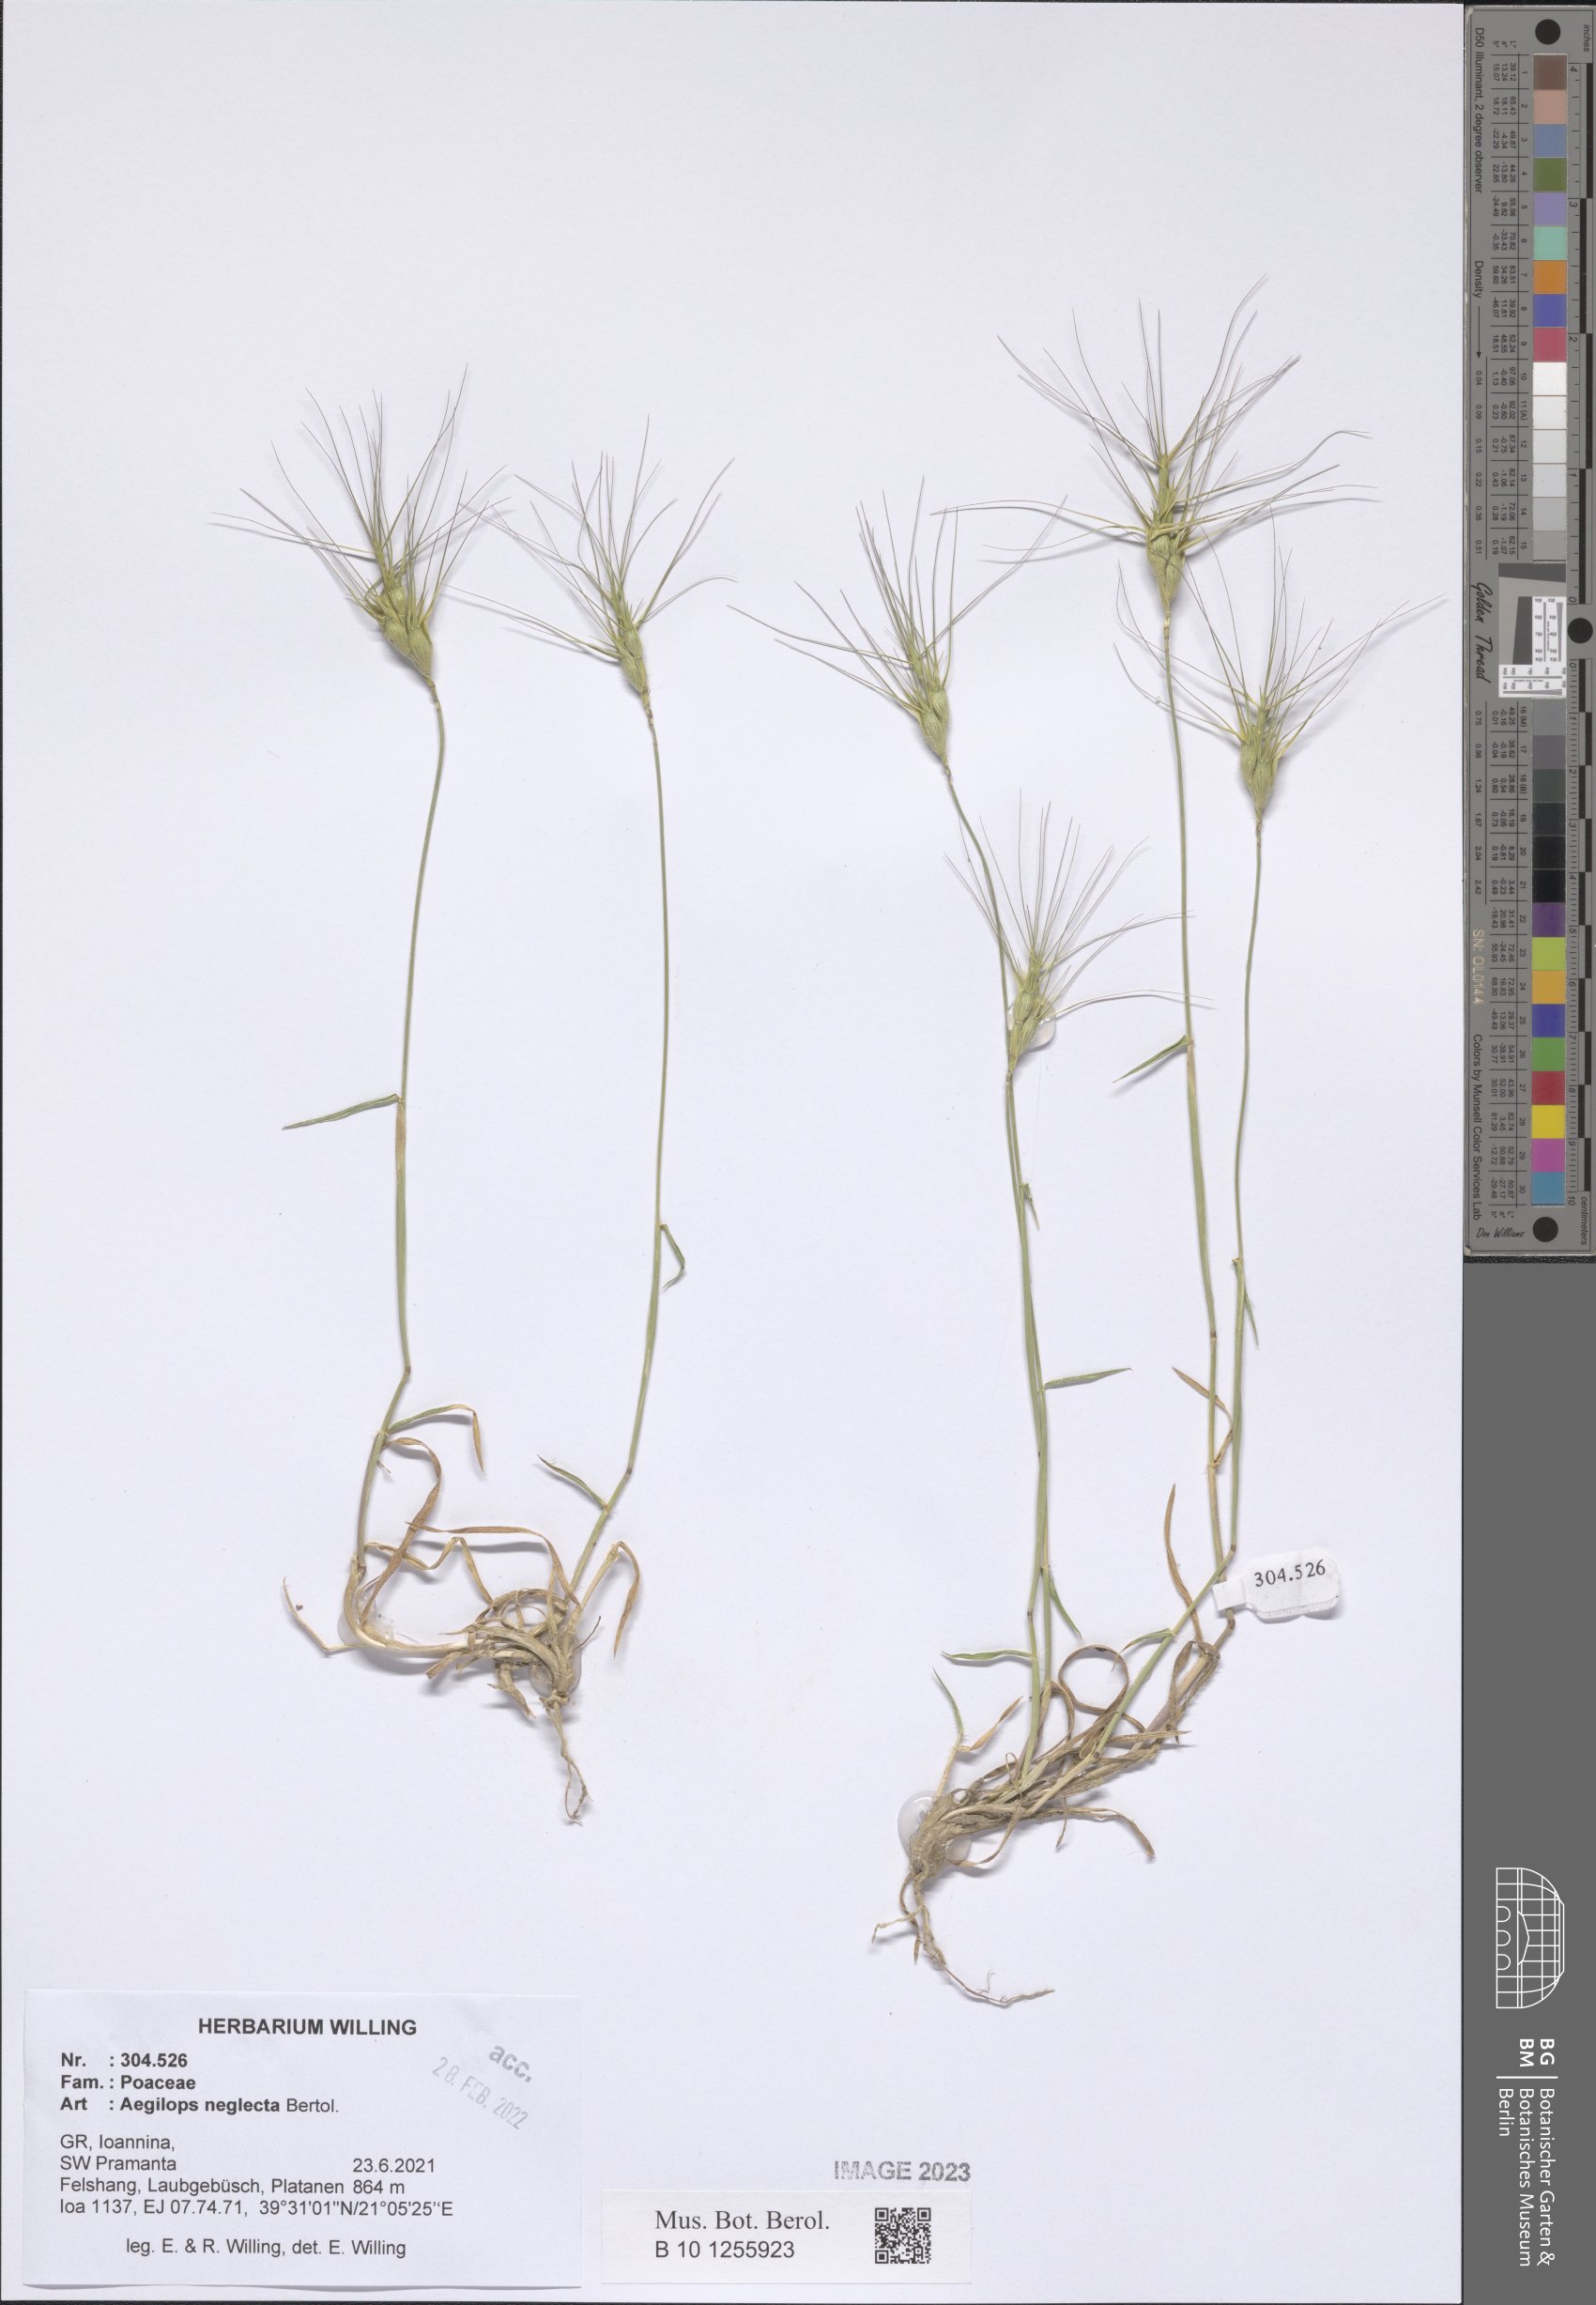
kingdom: Plantae
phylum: Tracheophyta
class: Liliopsida
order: Poales
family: Poaceae
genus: Aegilops
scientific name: Aegilops neglecta
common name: Three-awn goat grass
